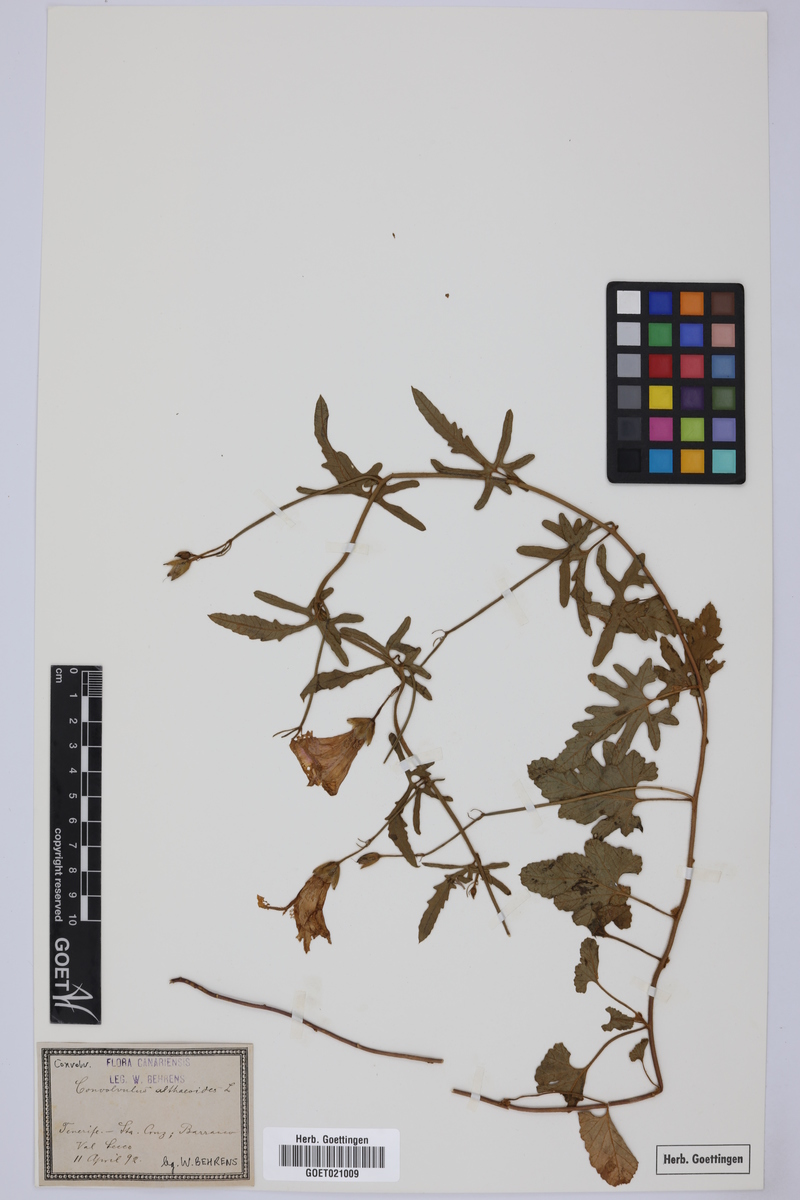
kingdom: Plantae
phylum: Tracheophyta
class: Magnoliopsida
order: Solanales
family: Convolvulaceae
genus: Convolvulus
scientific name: Convolvulus althaeoides
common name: Mallow bindweed
